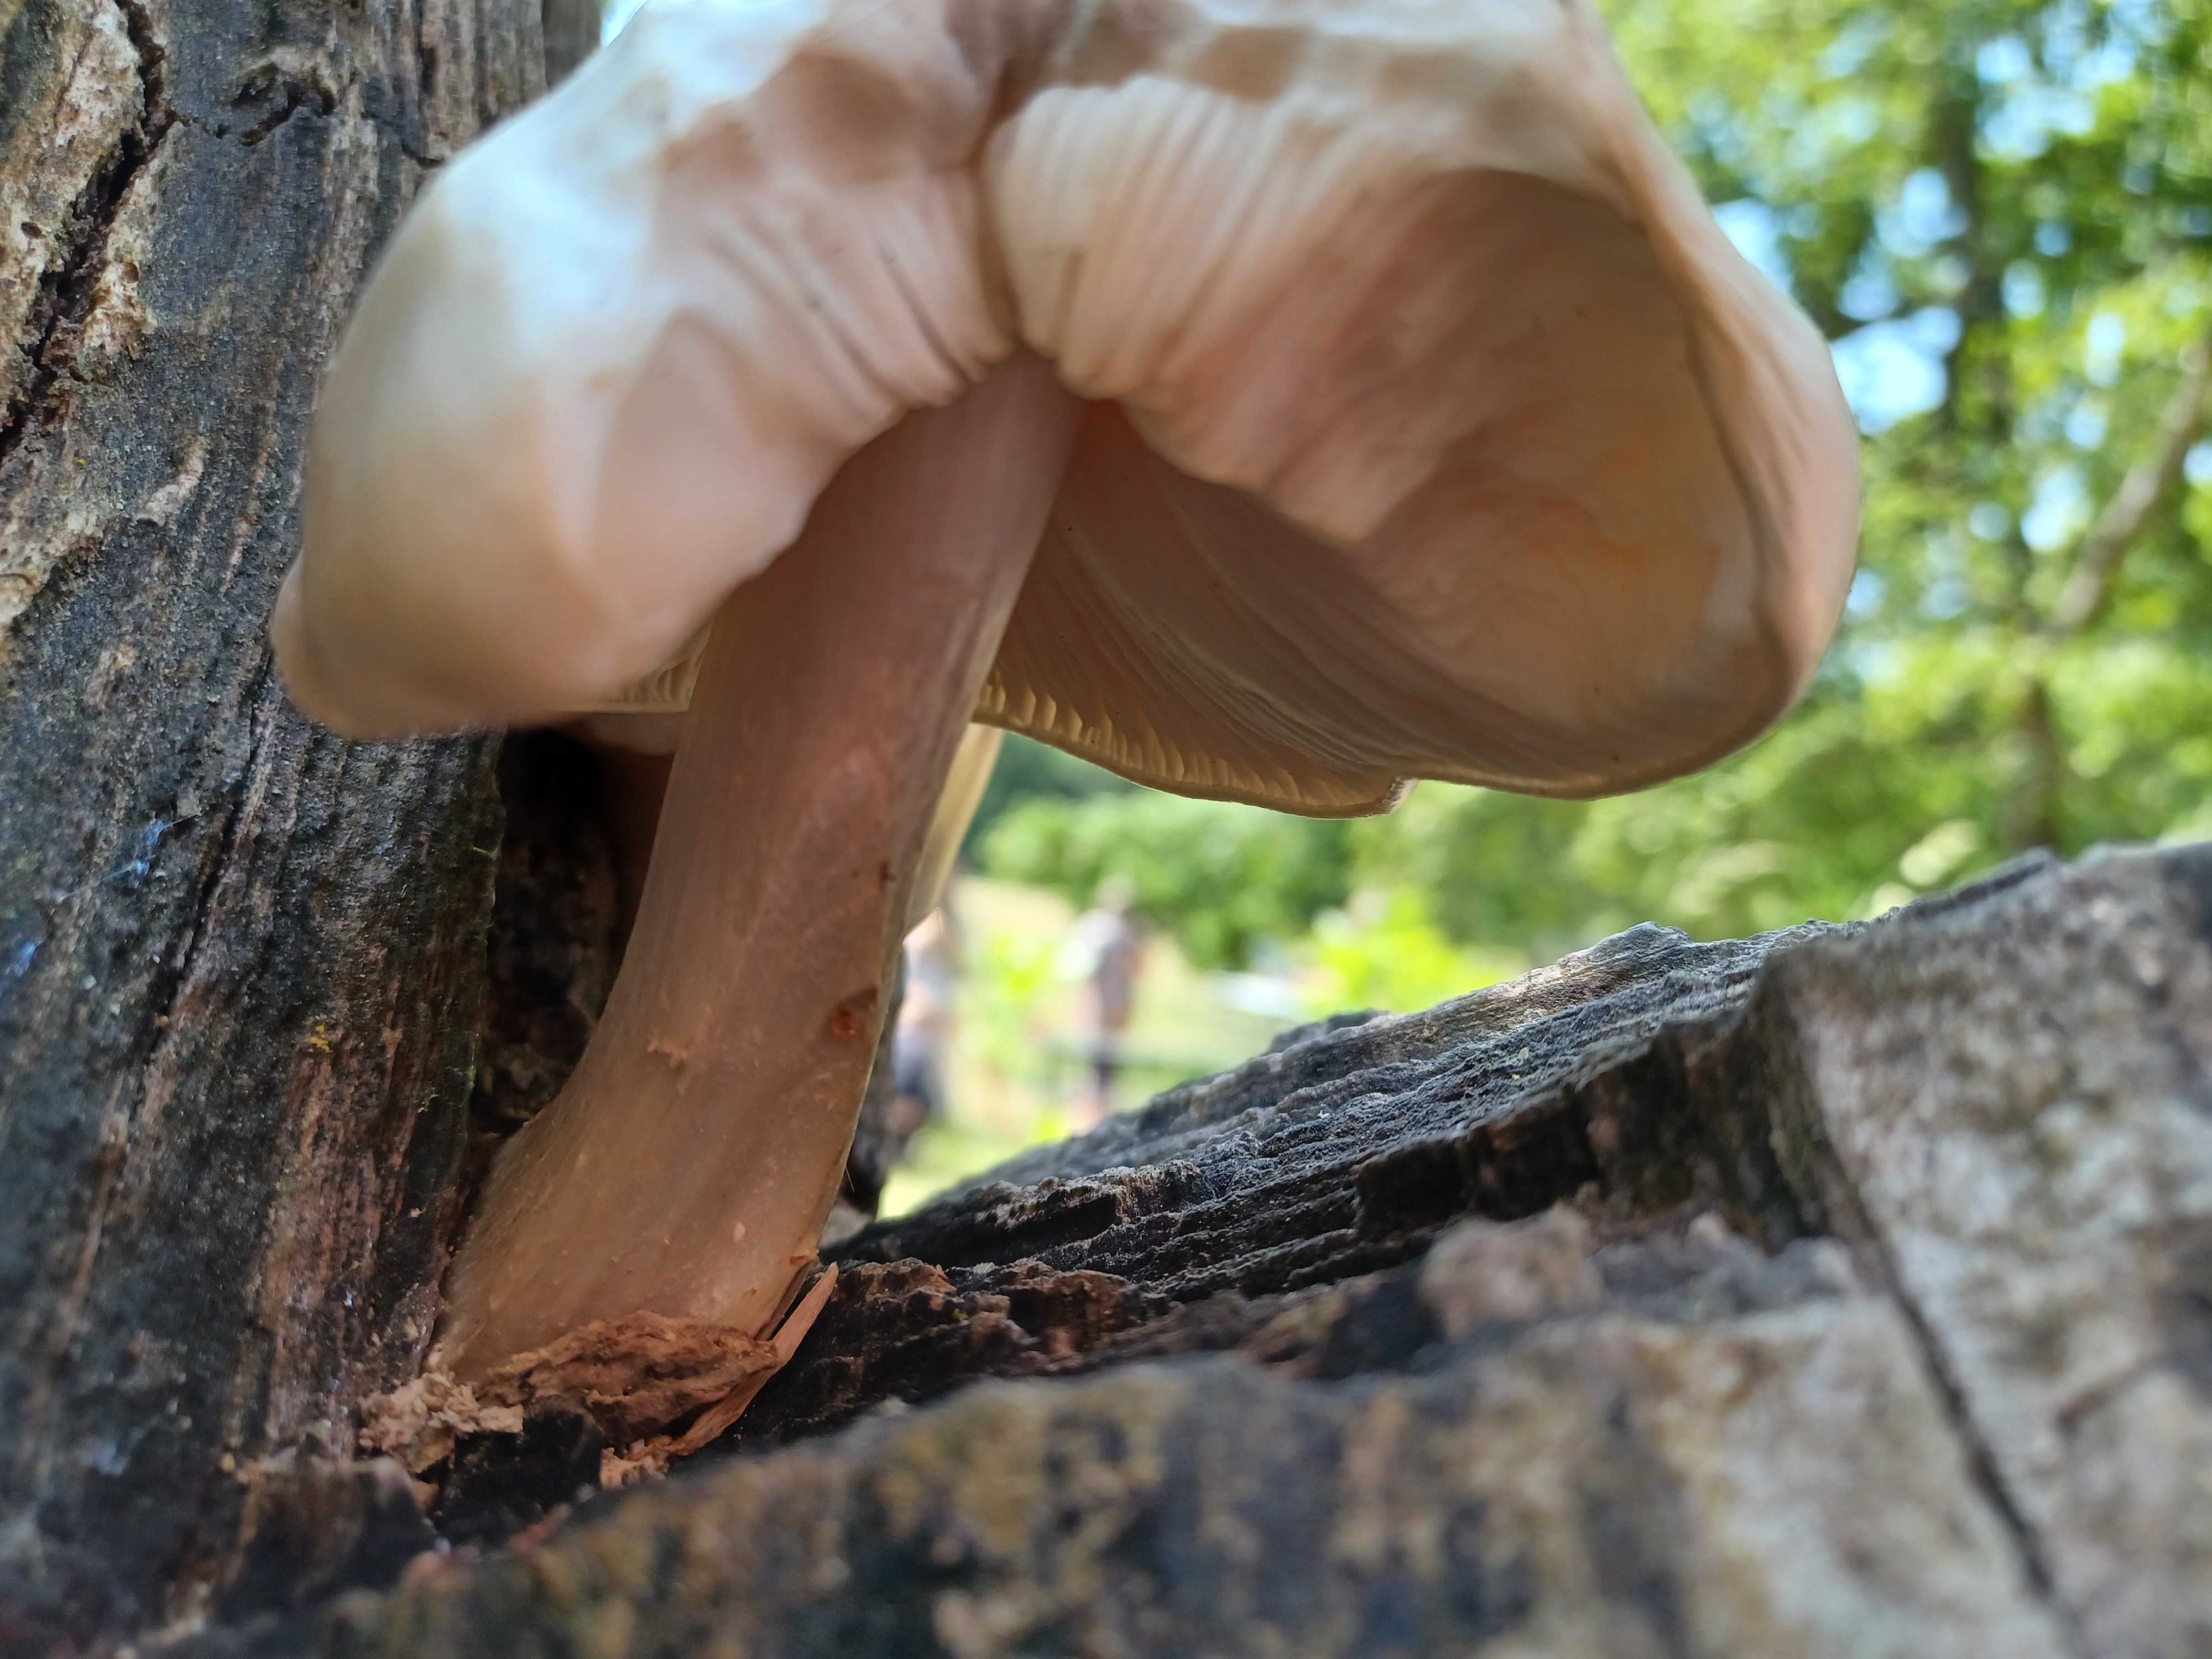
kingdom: Fungi
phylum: Basidiomycota
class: Agaricomycetes
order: Agaricales
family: Pluteaceae
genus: Pluteus
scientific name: Pluteus petasatus
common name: savsmulds-skærmhat
